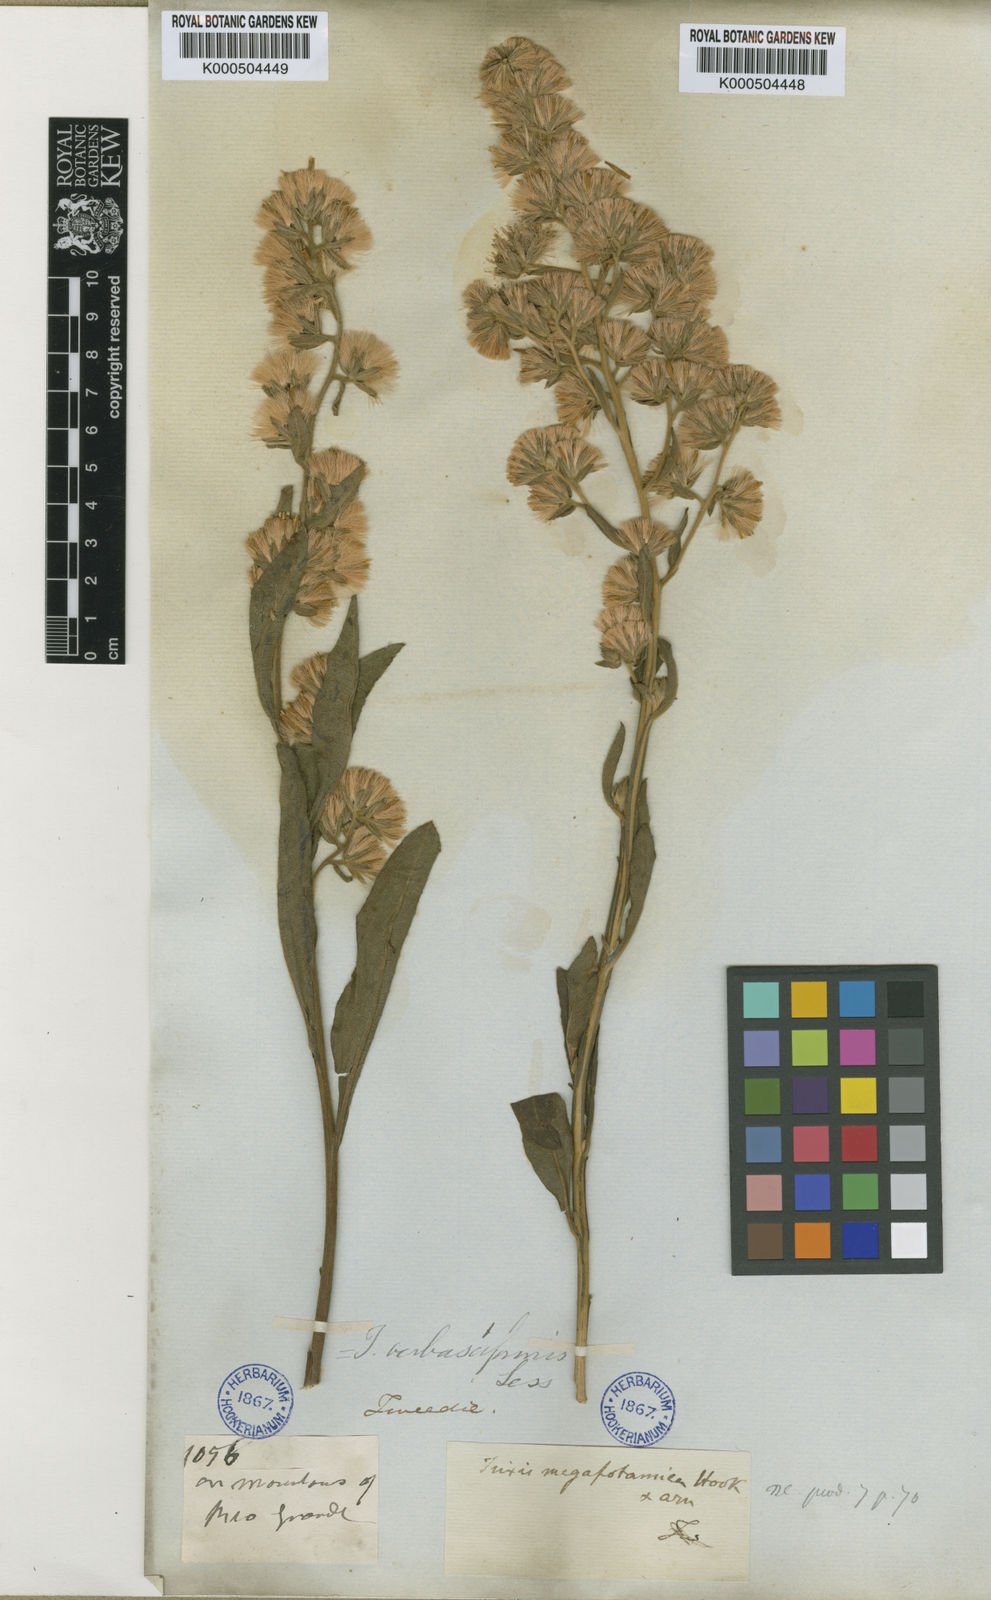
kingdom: Plantae
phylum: Tracheophyta
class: Magnoliopsida
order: Asterales
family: Asteraceae
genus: Trixis
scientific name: Trixis nobilis
